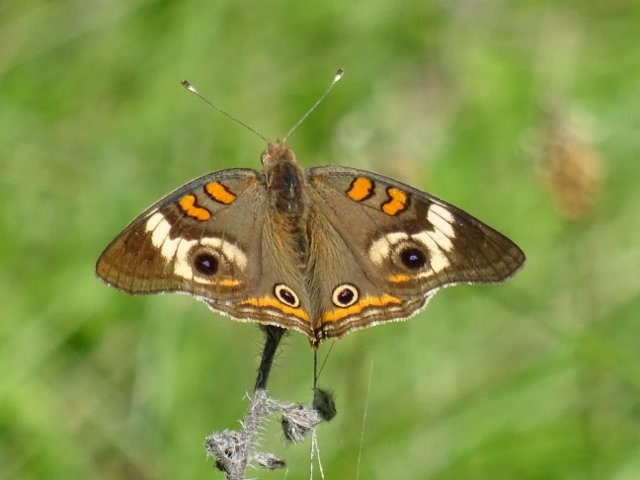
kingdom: Animalia
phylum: Arthropoda
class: Insecta
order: Lepidoptera
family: Nymphalidae
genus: Junonia
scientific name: Junonia coenia
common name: Common Buckeye
